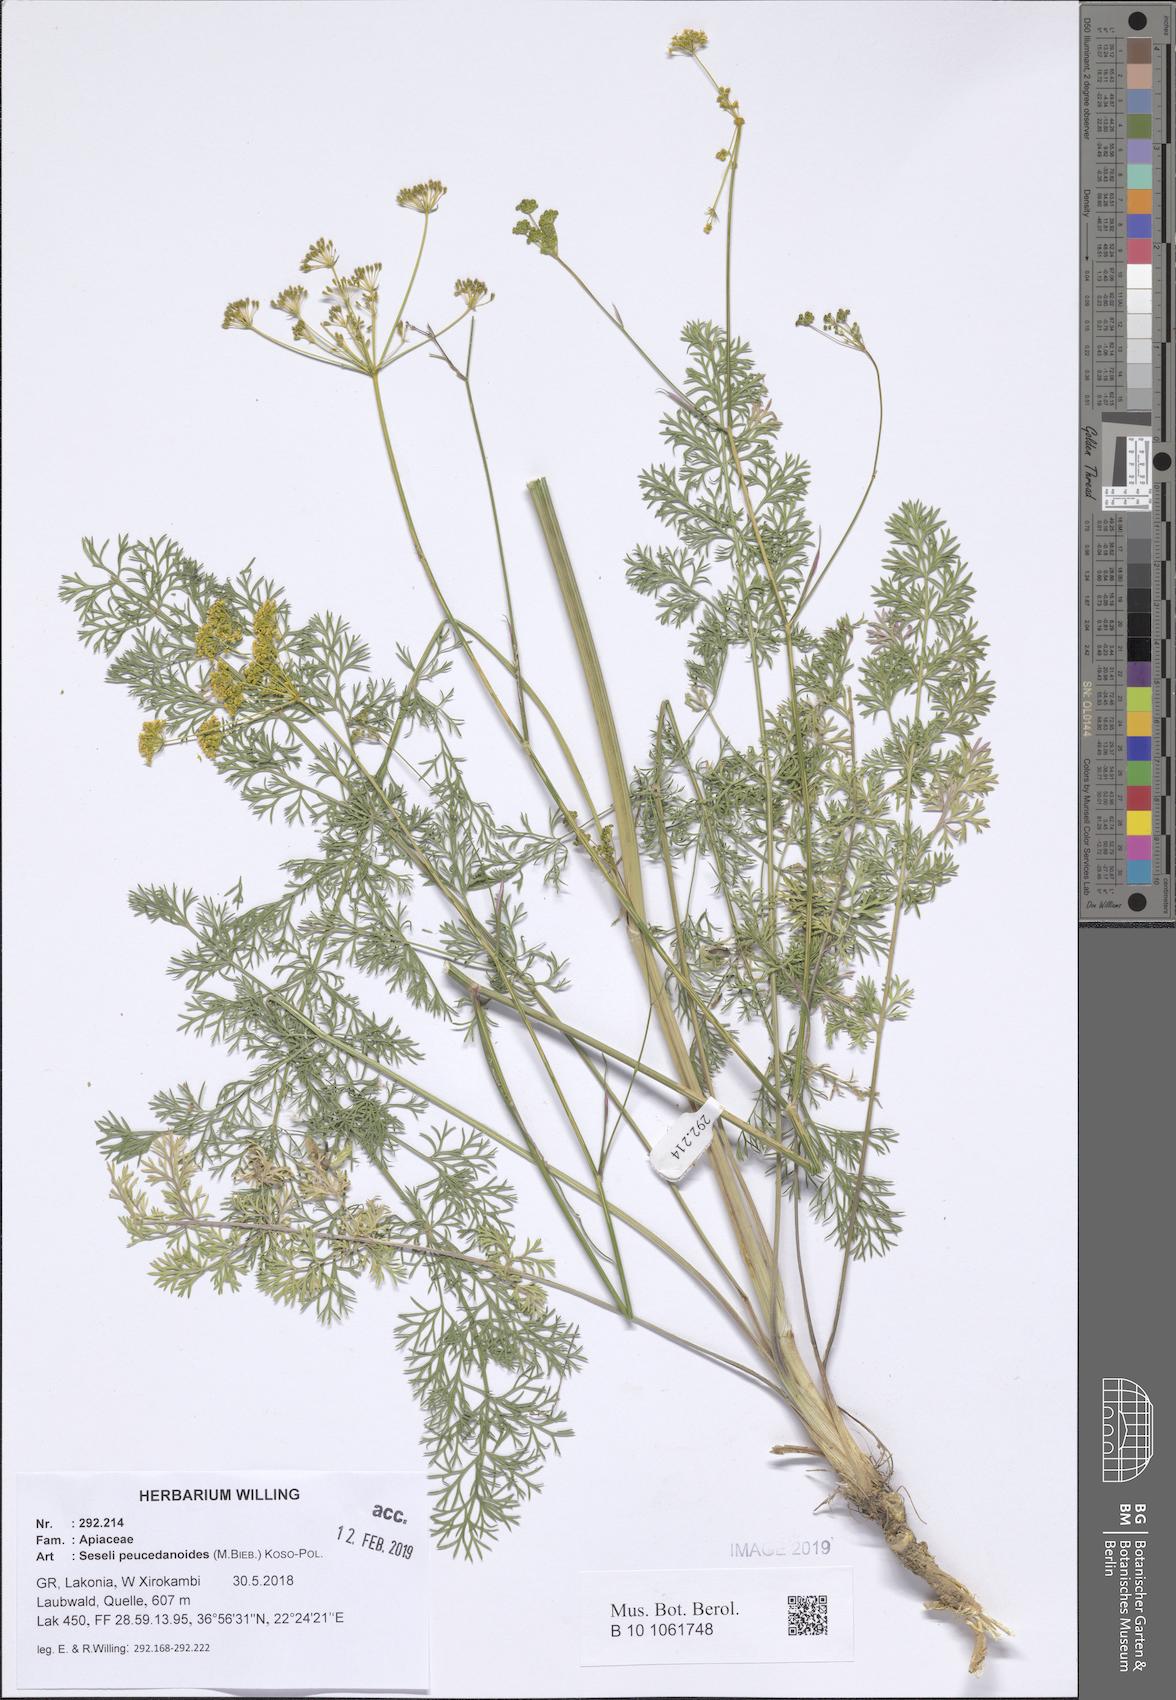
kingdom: Plantae
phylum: Tracheophyta
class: Magnoliopsida
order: Apiales
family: Apiaceae
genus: Gasparinia
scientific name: Gasparinia peucedanoides
